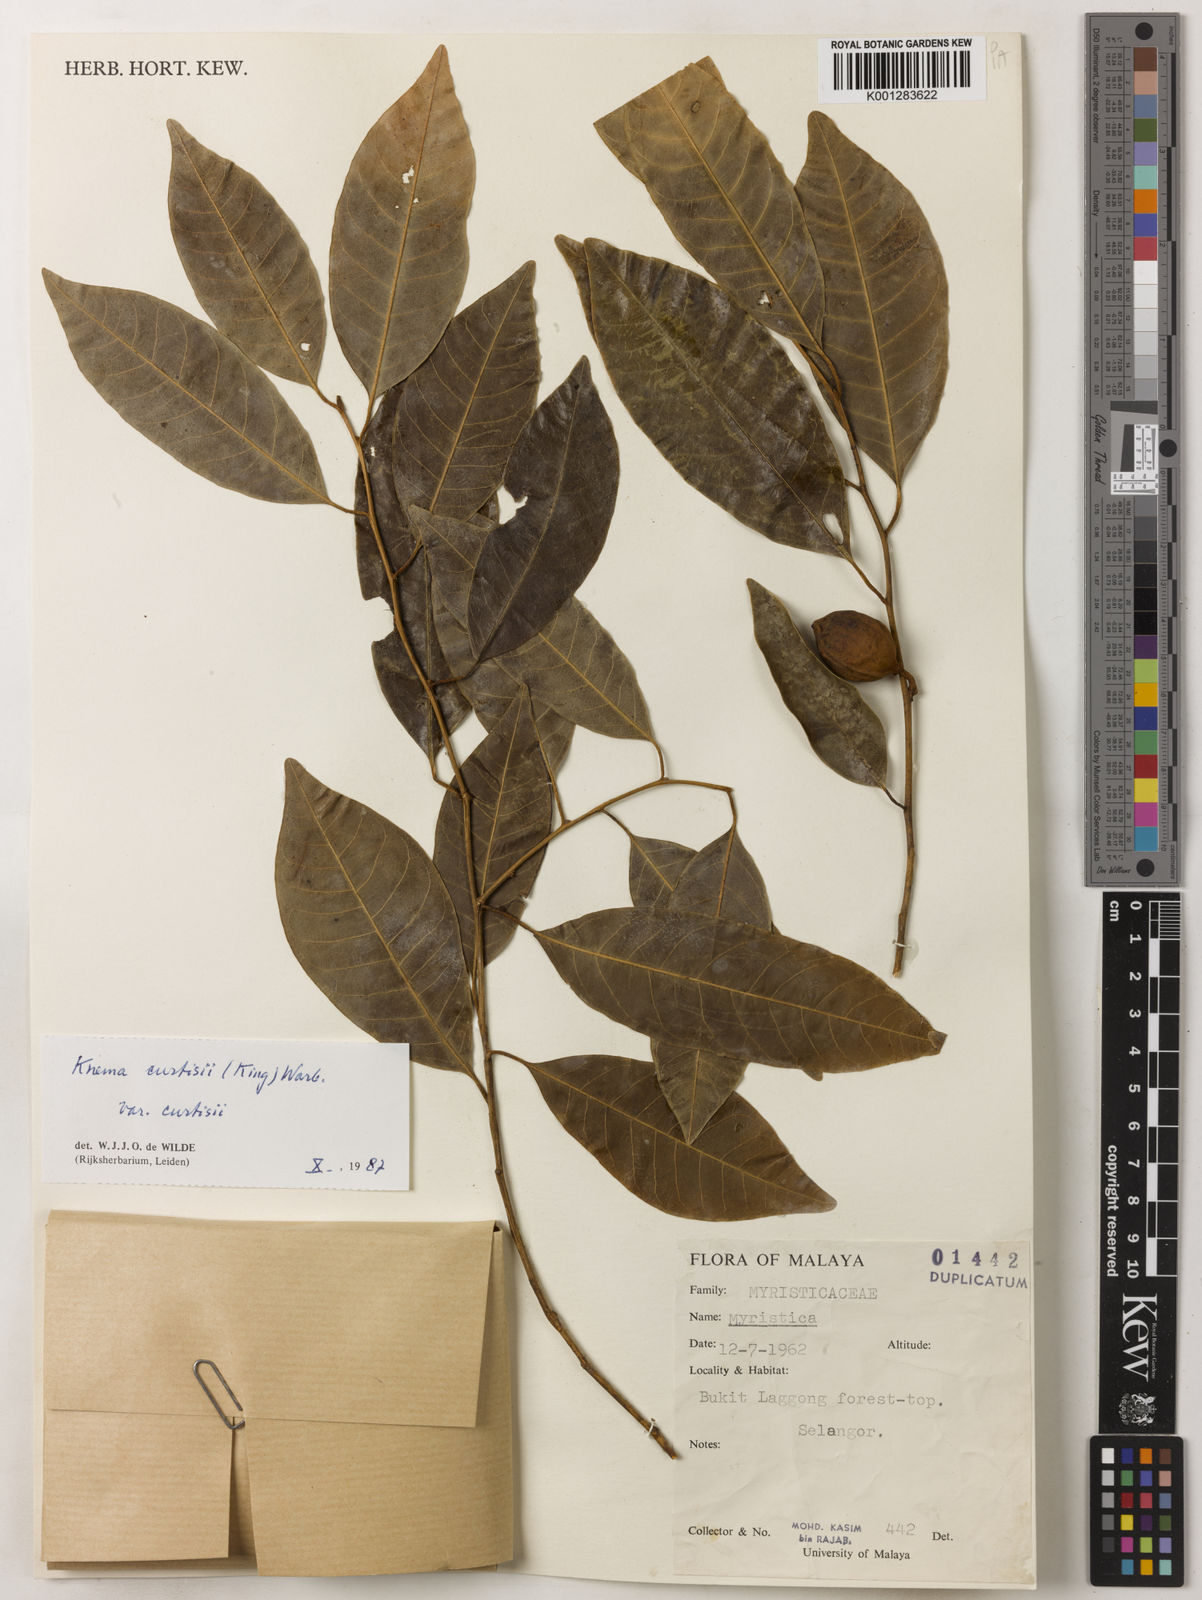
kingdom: Plantae
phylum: Tracheophyta
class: Magnoliopsida
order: Magnoliales
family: Myristicaceae
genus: Knema
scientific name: Knema curtisii
